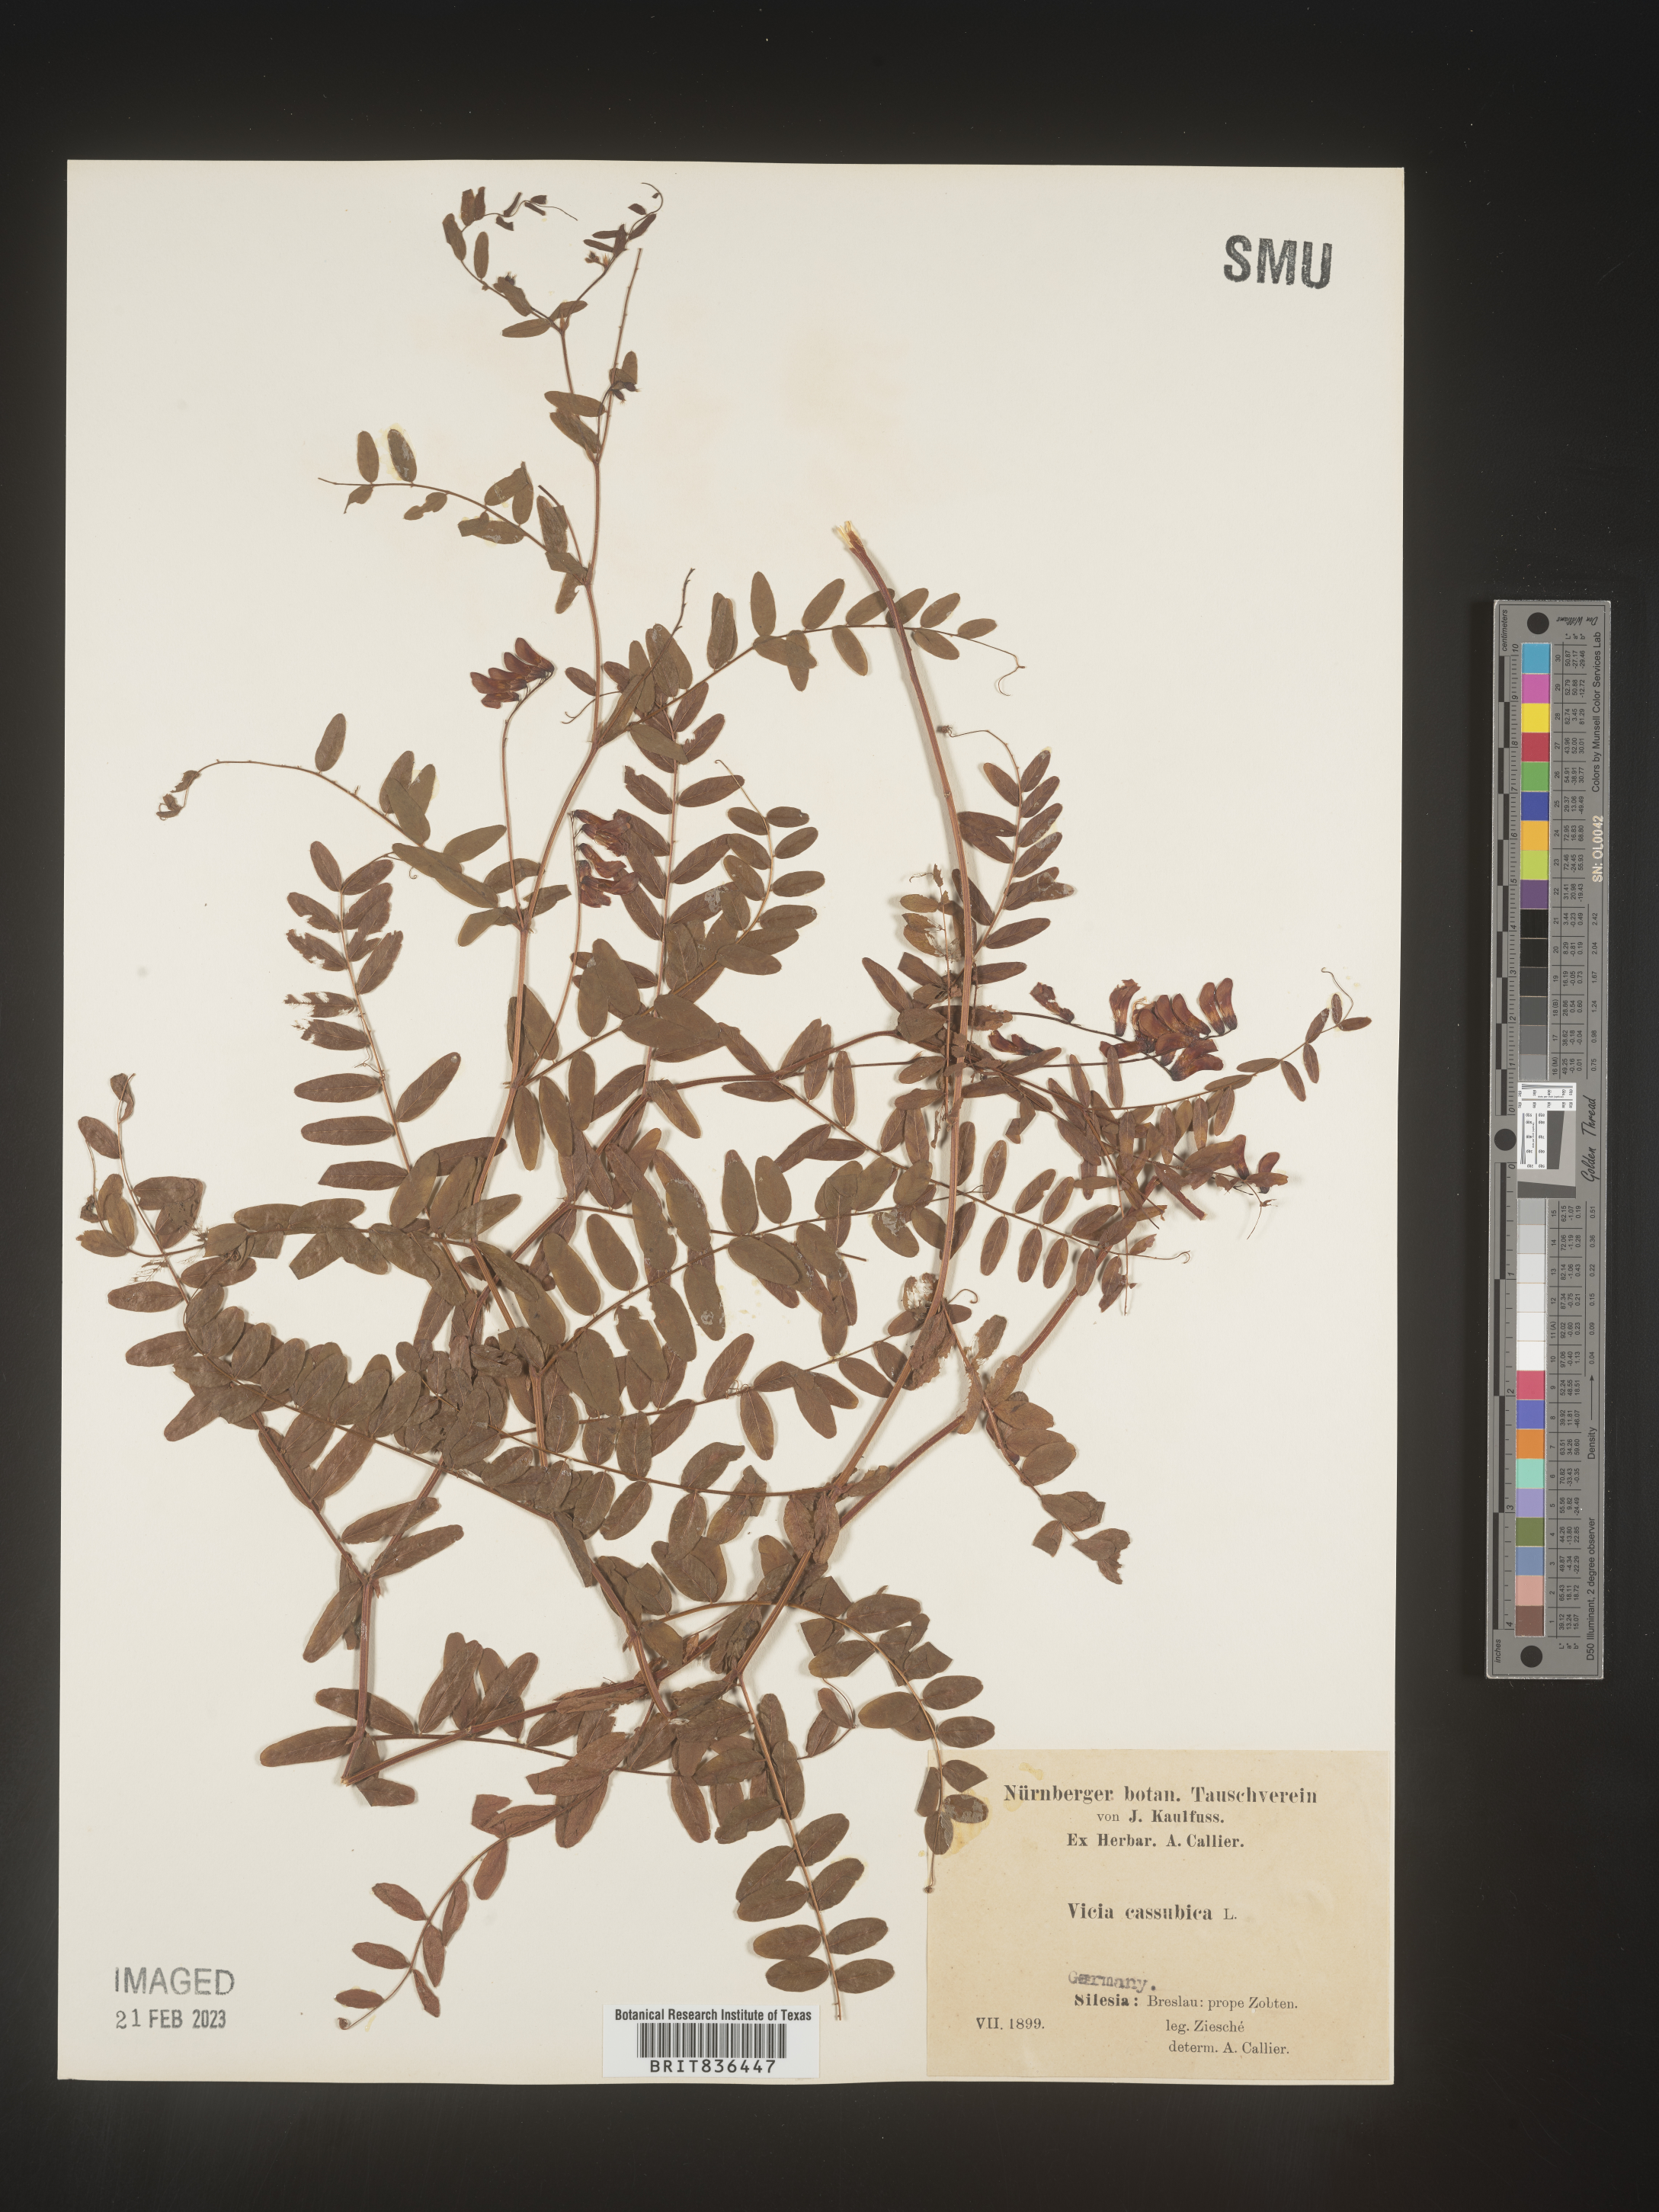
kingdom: Plantae
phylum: Tracheophyta
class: Magnoliopsida
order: Fabales
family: Fabaceae
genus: Vicia
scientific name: Vicia
